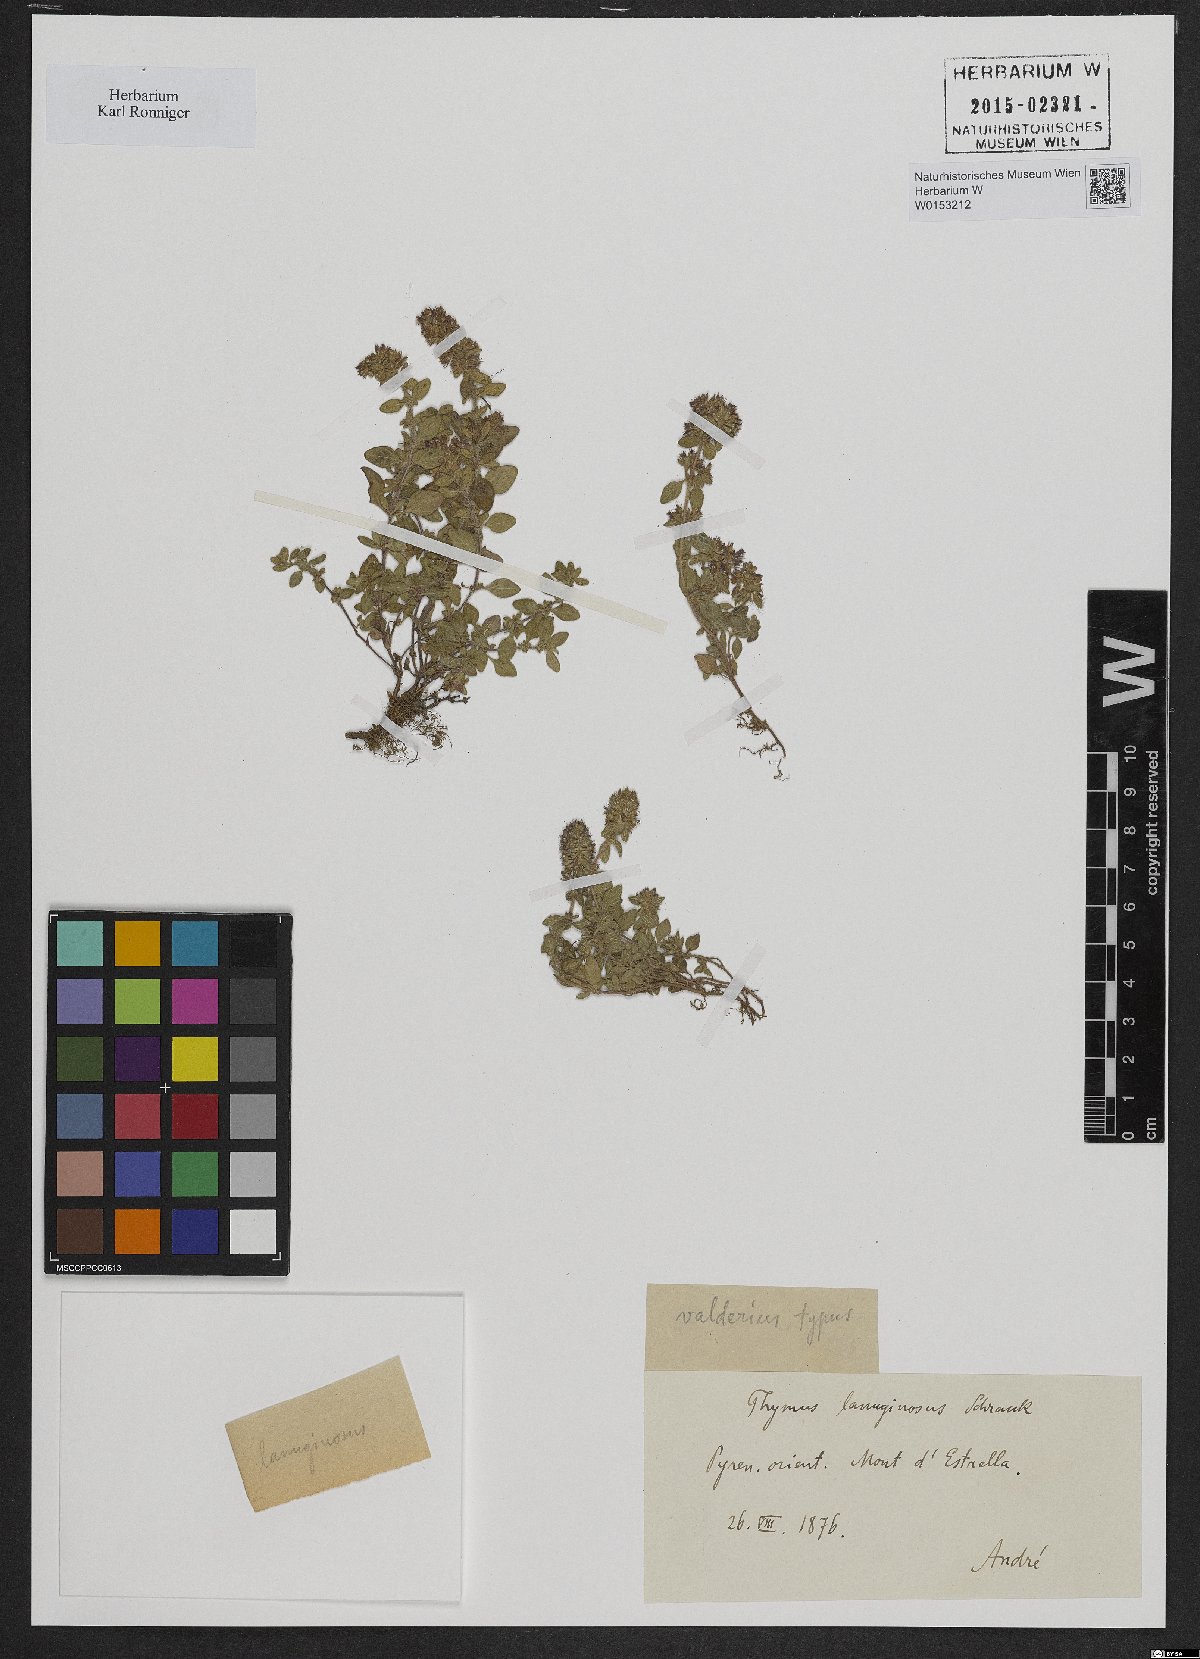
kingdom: Plantae
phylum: Tracheophyta
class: Magnoliopsida
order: Lamiales
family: Lamiaceae
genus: Thymus
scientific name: Thymus pannonicus
